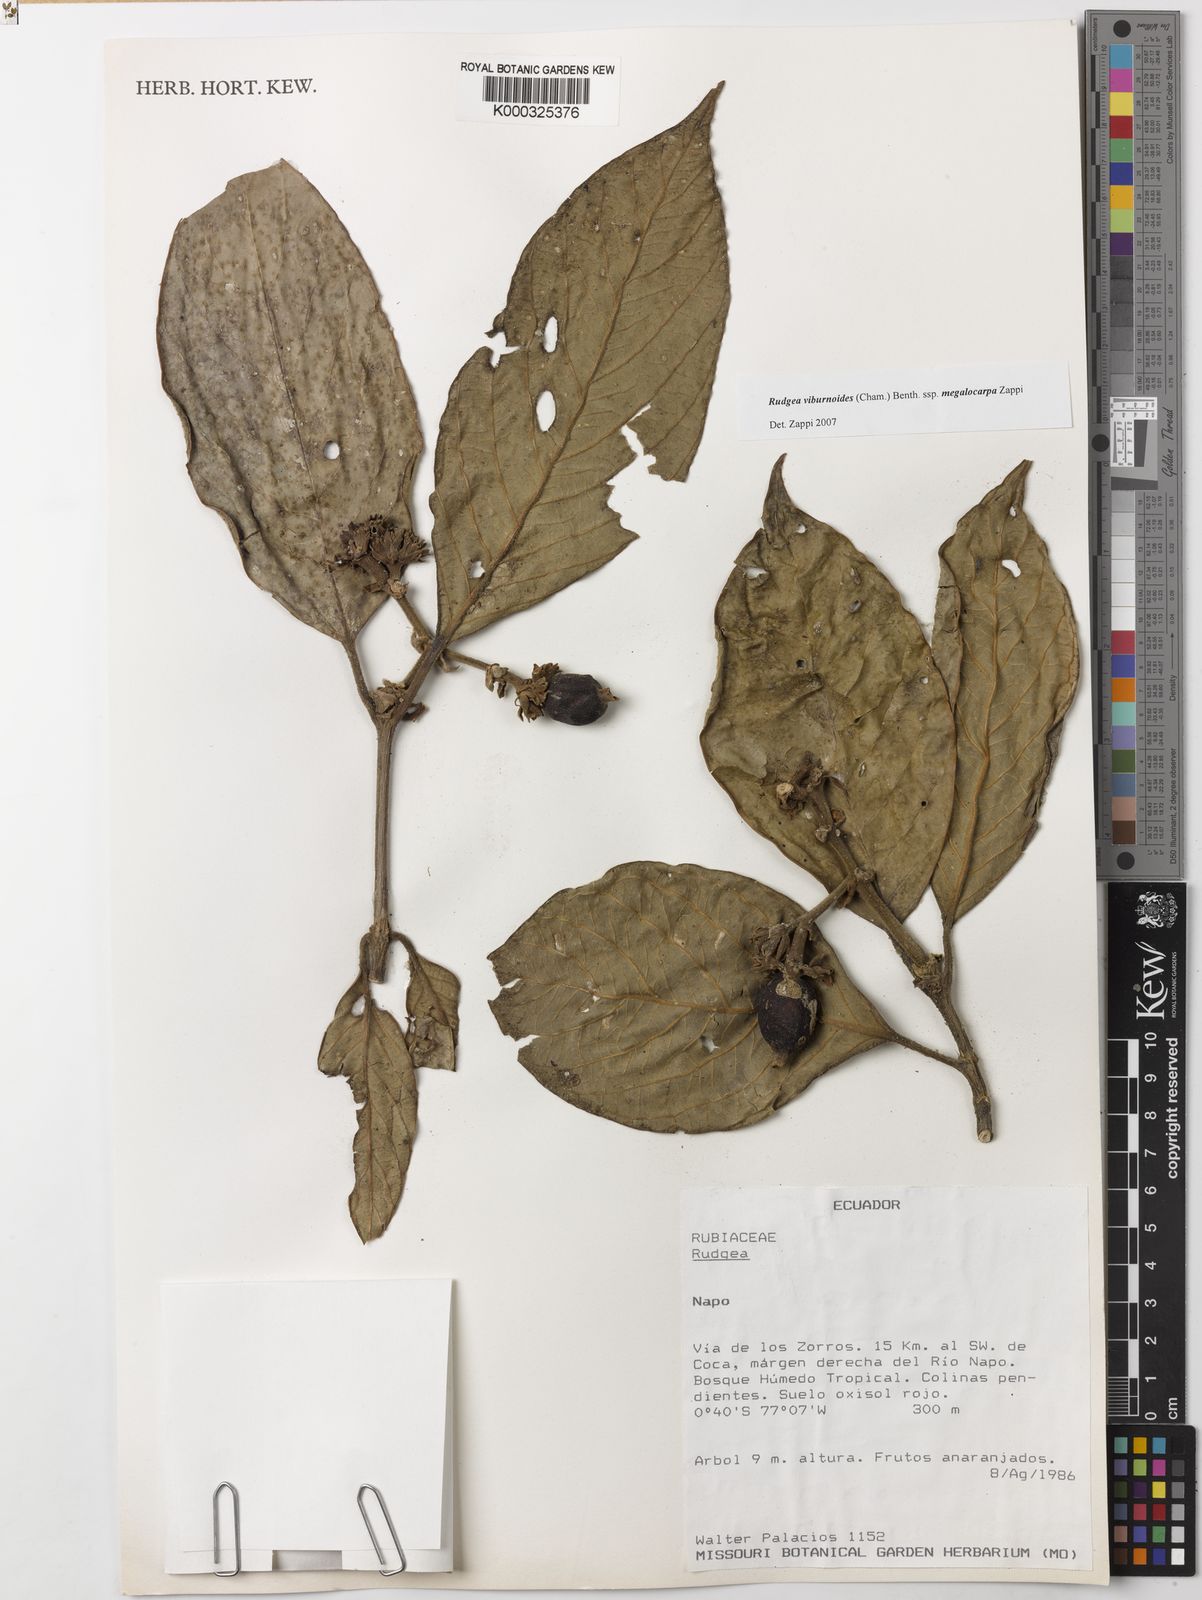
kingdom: Plantae
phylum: Tracheophyta
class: Magnoliopsida
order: Gentianales
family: Rubiaceae
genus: Rudgea
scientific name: Rudgea viburnoides
